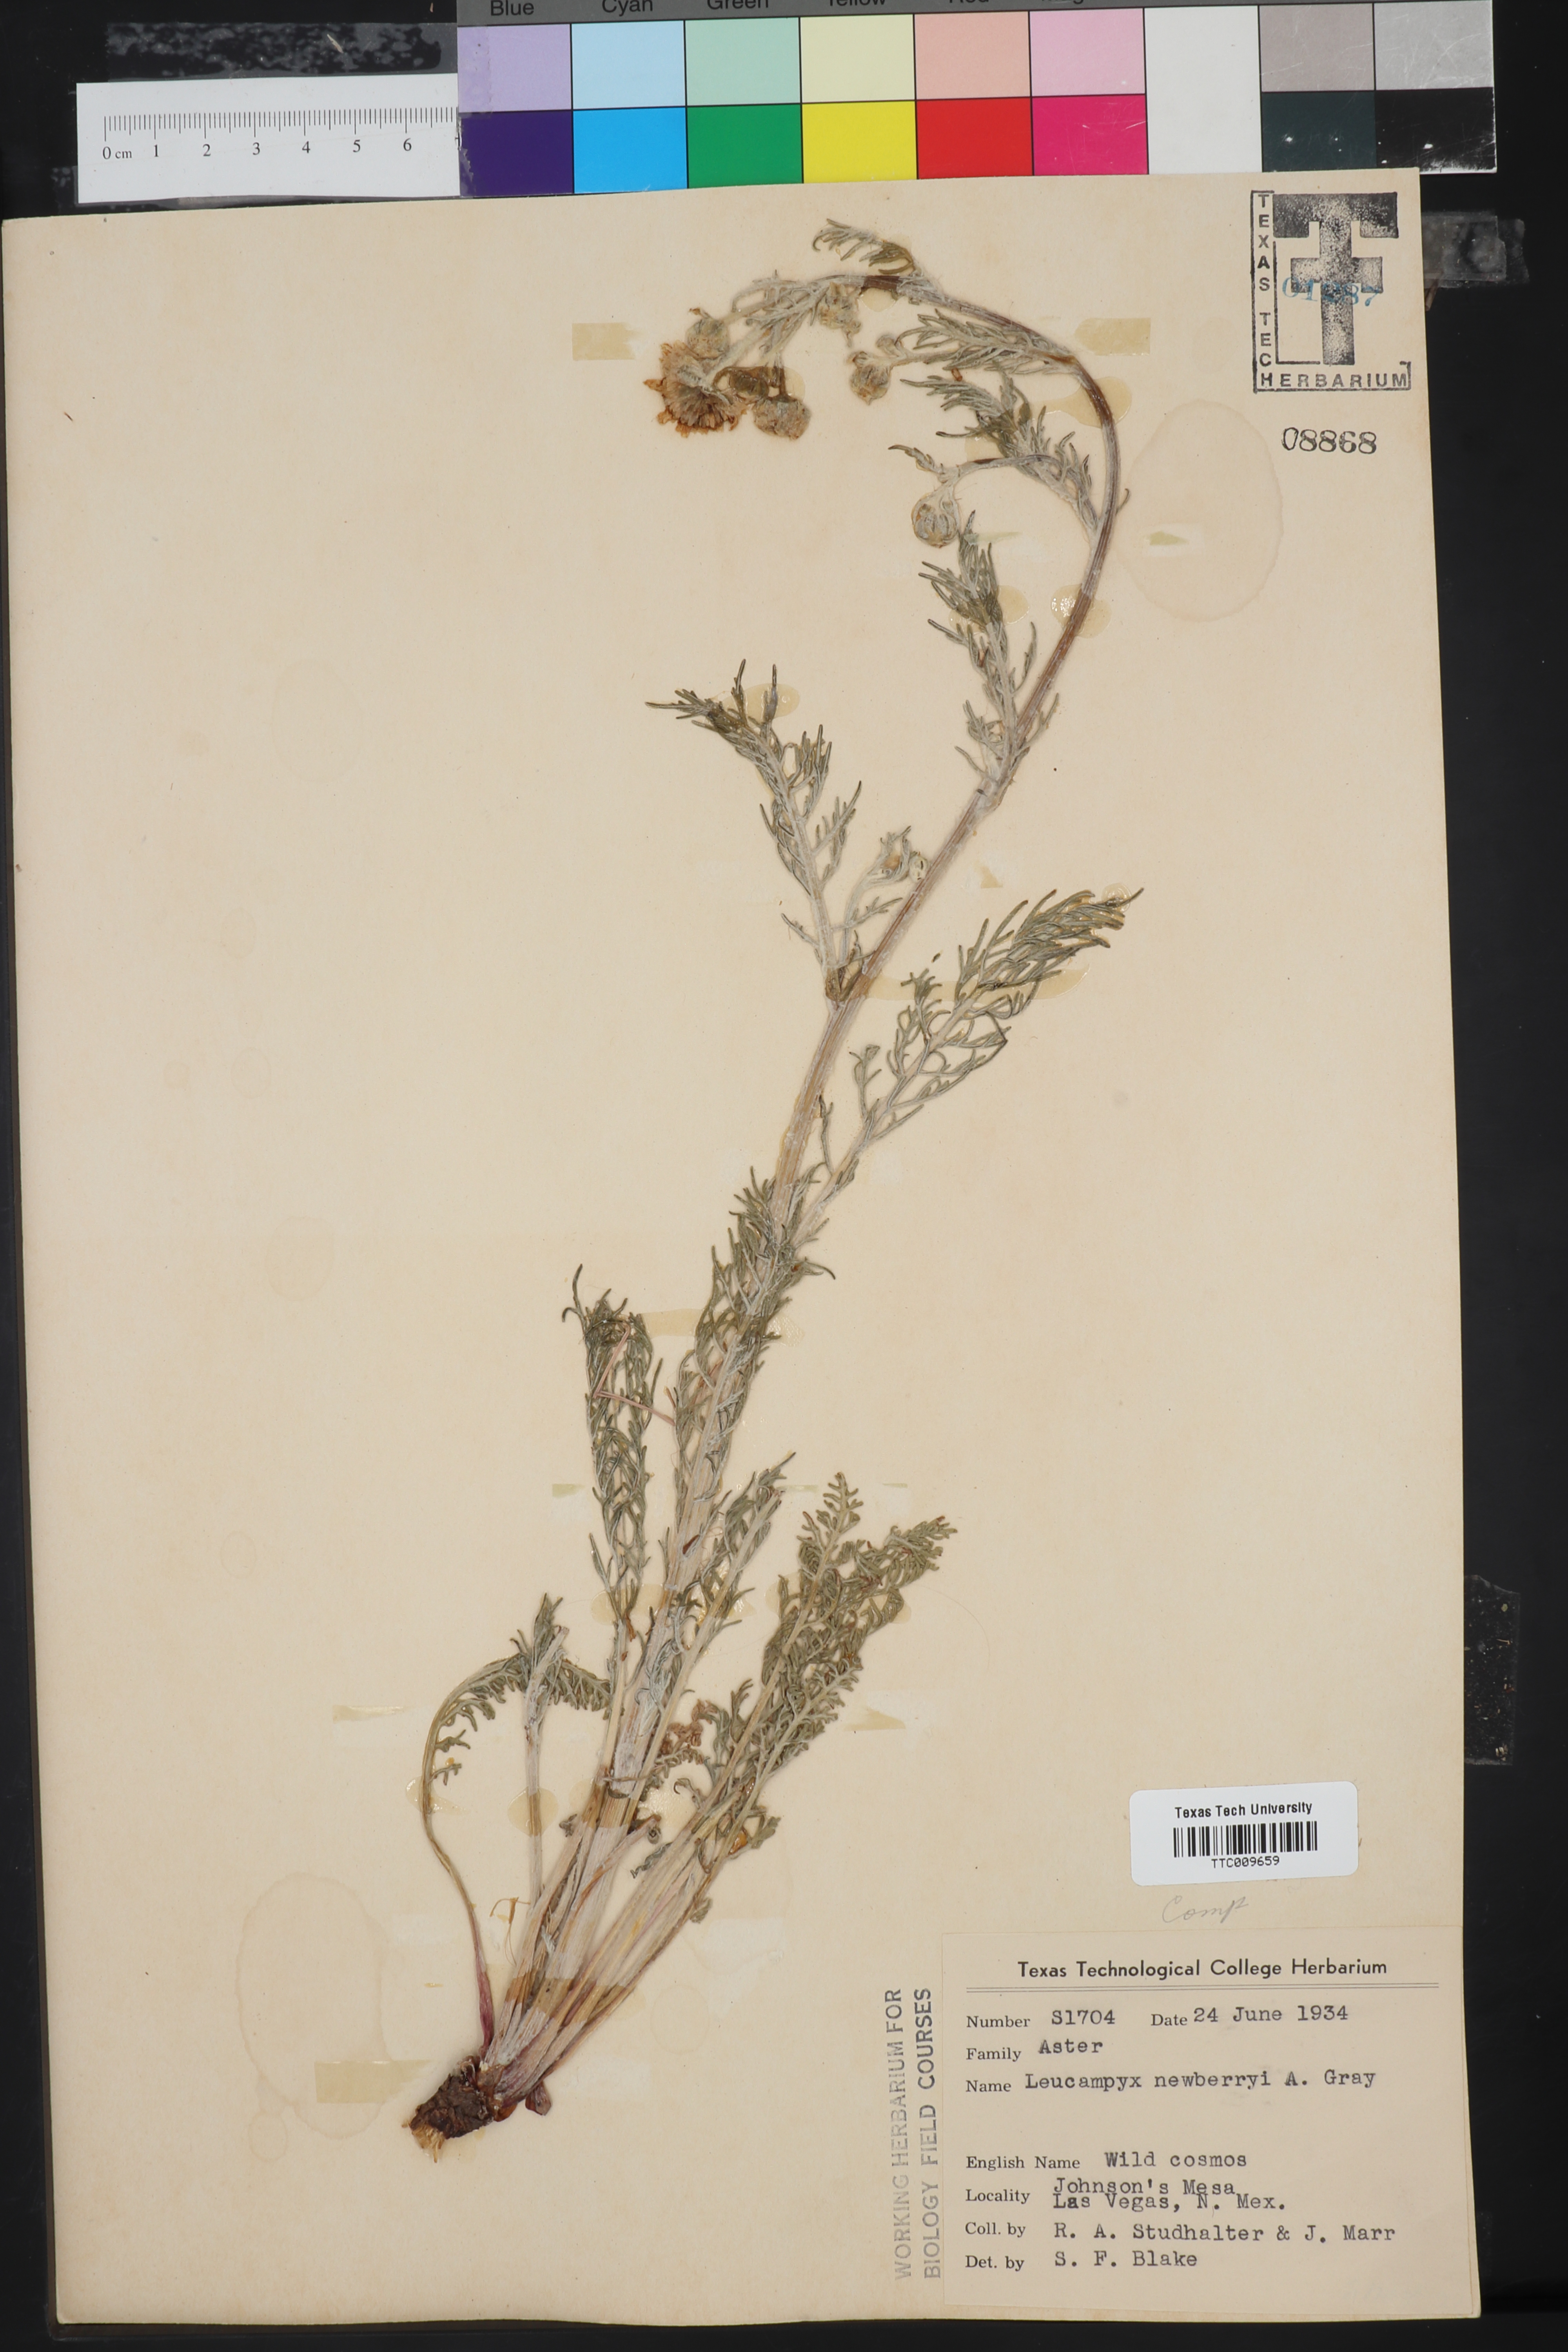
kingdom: Plantae
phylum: Tracheophyta
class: Magnoliopsida
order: Asterales
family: Asteraceae
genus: Hymenopappus
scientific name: Hymenopappus newberryi
